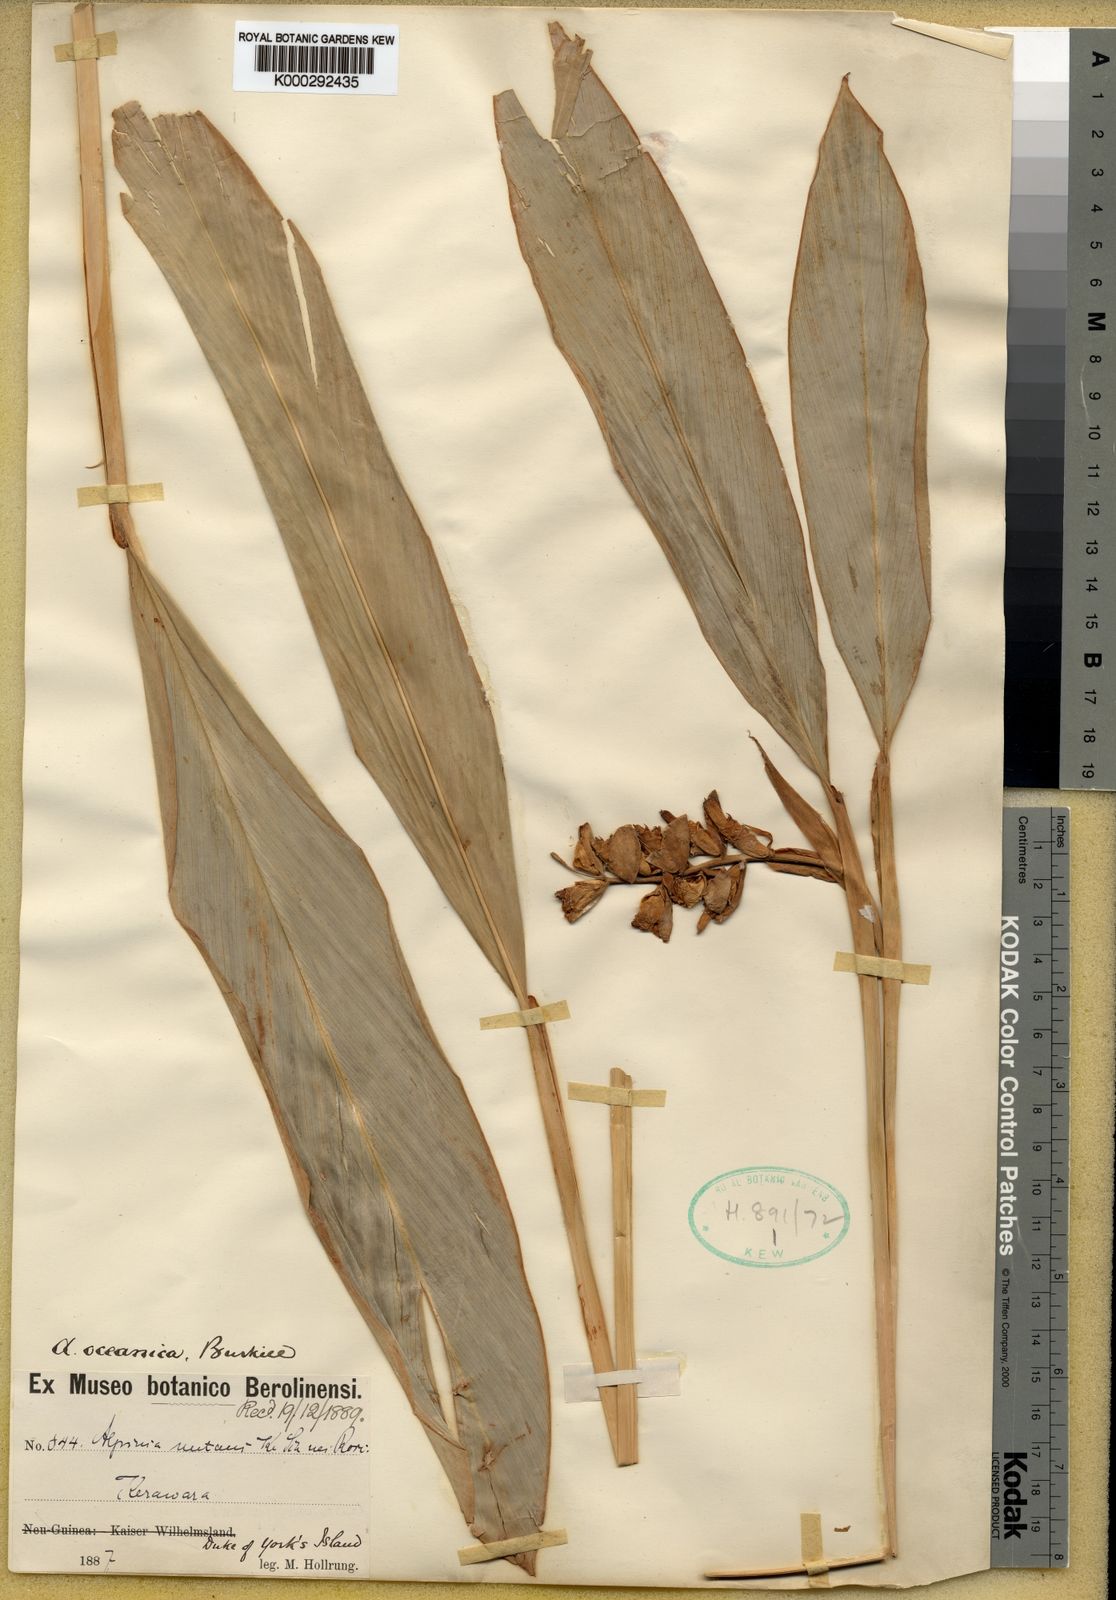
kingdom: Plantae
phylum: Tracheophyta
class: Liliopsida
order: Zingiberales
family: Zingiberaceae
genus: Alpinia
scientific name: Alpinia oceanica
